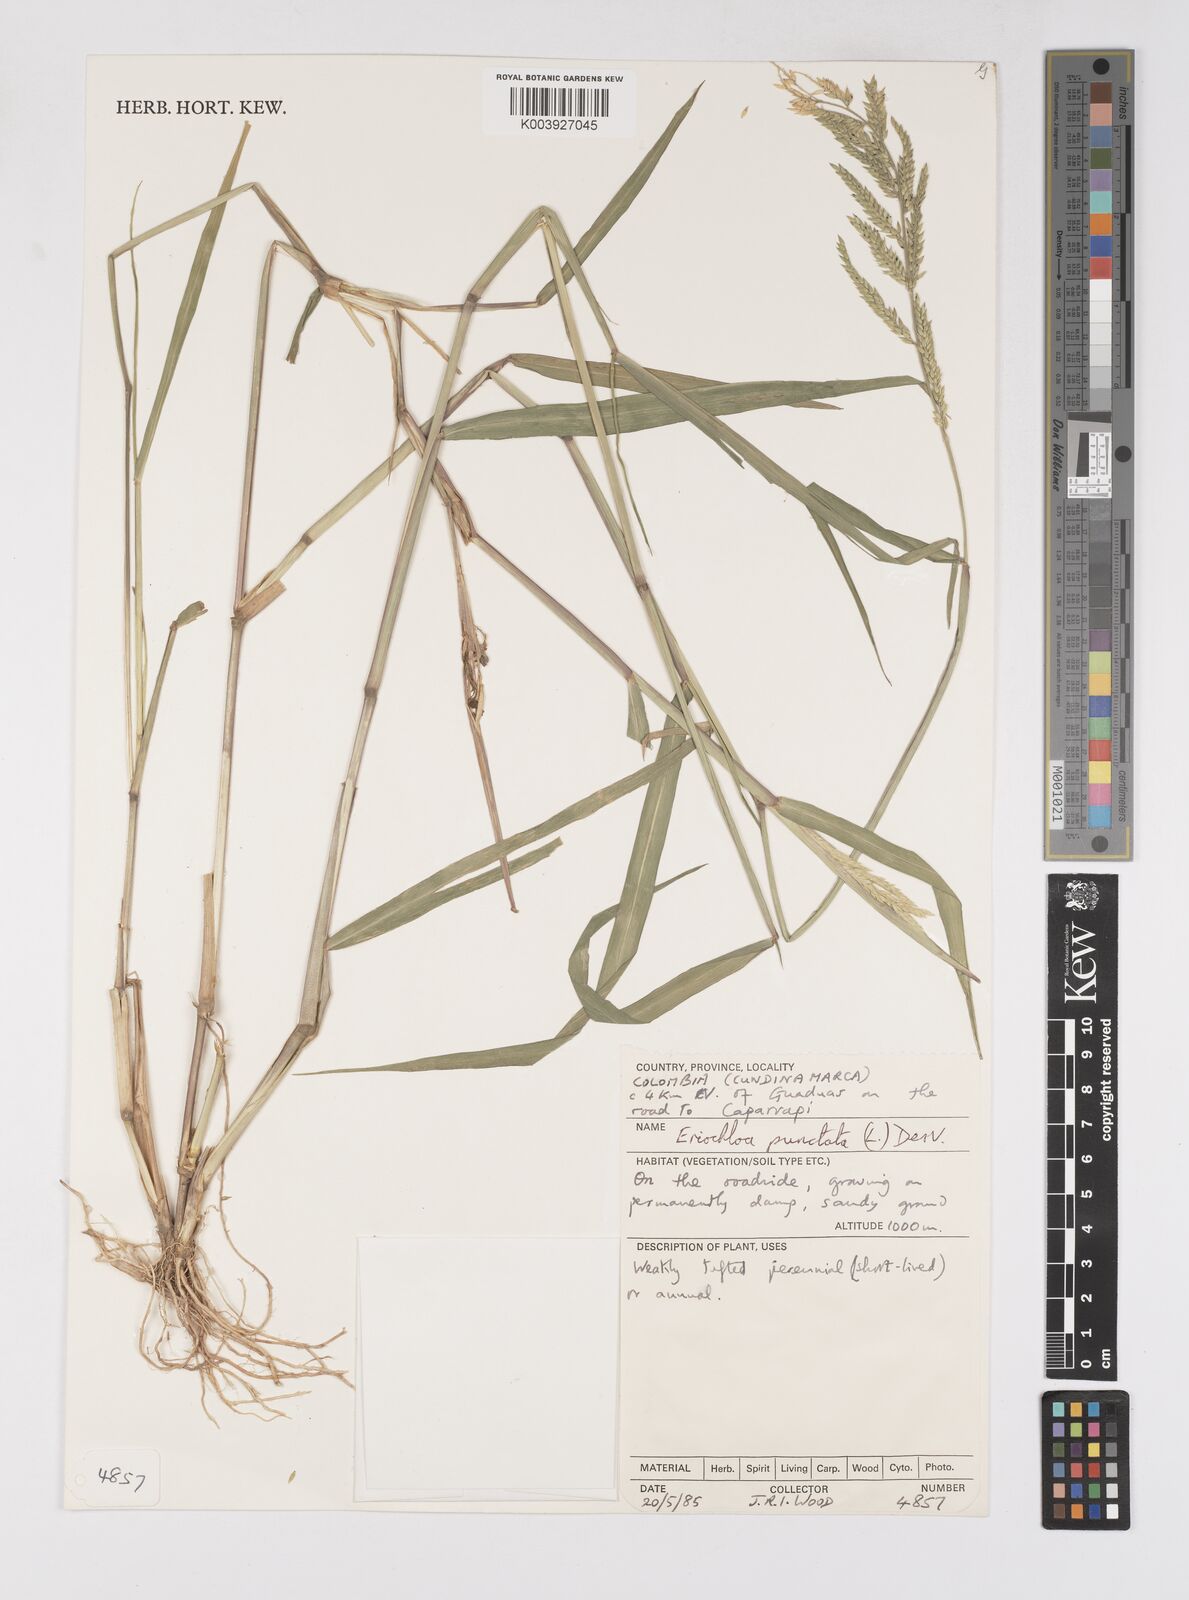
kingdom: Plantae
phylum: Tracheophyta
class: Liliopsida
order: Poales
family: Poaceae
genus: Eriochloa
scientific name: Eriochloa punctata
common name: Louisiana cupgrass
